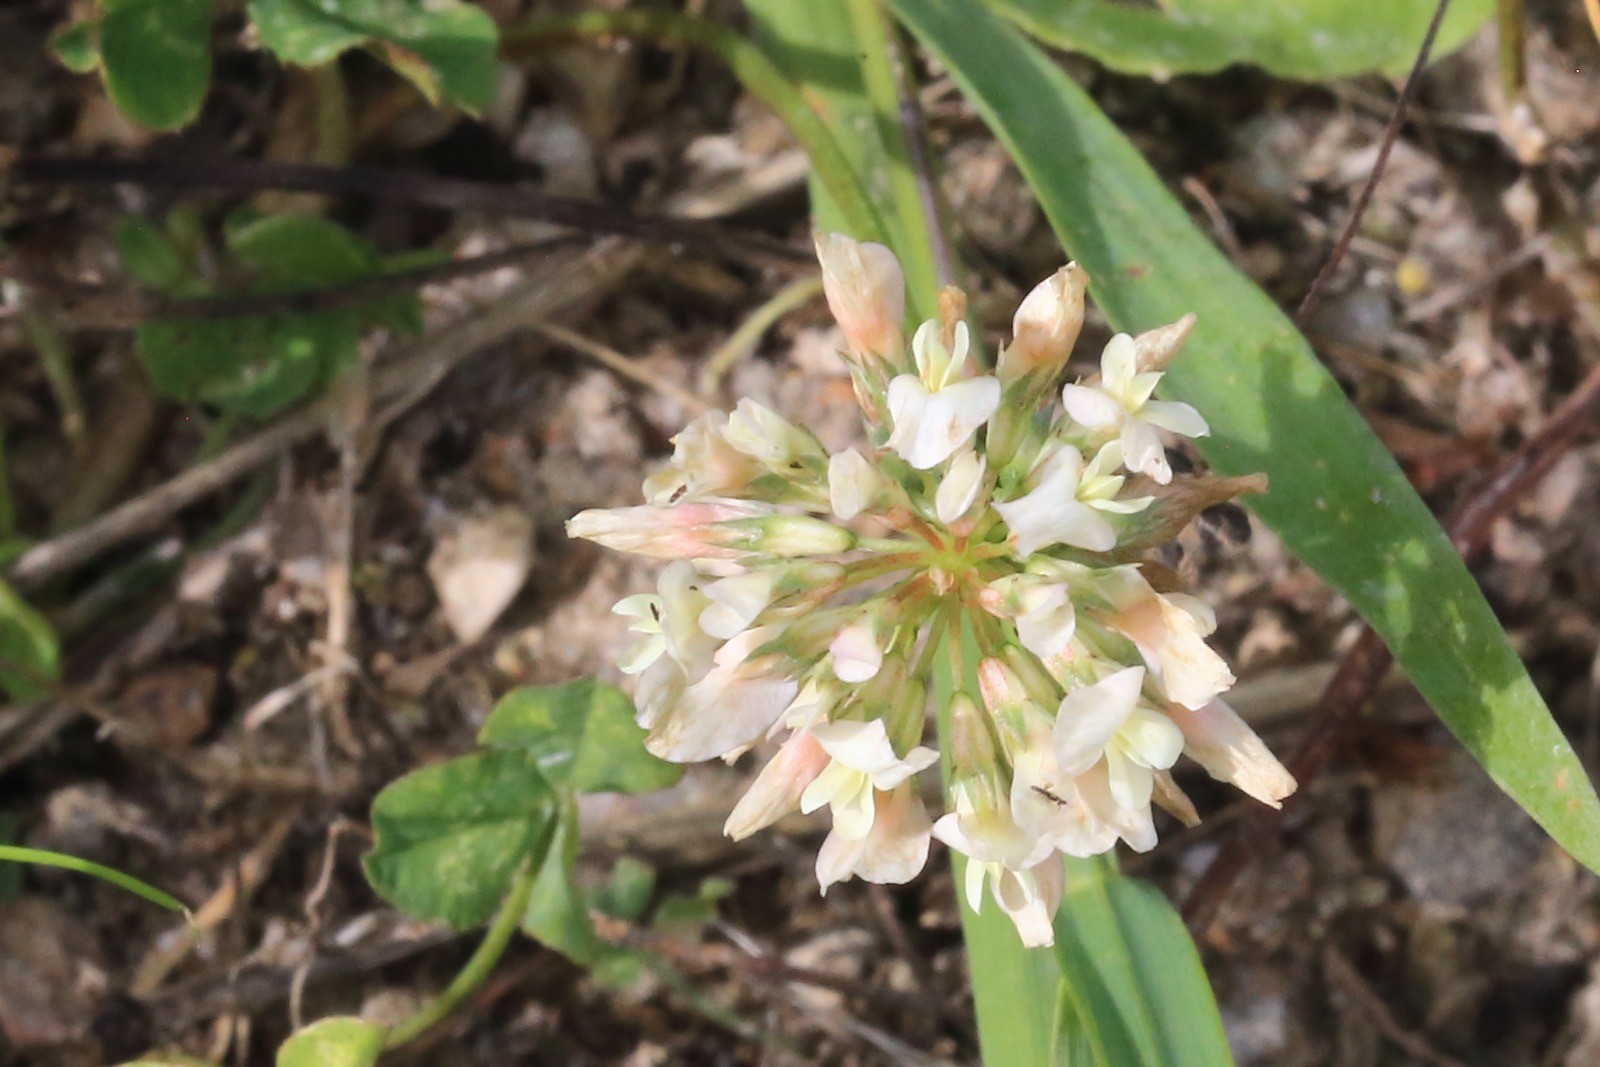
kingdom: Plantae
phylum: Tracheophyta
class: Magnoliopsida
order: Fabales
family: Fabaceae
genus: Trifolium
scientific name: Trifolium repens
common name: Hvid-kløver
